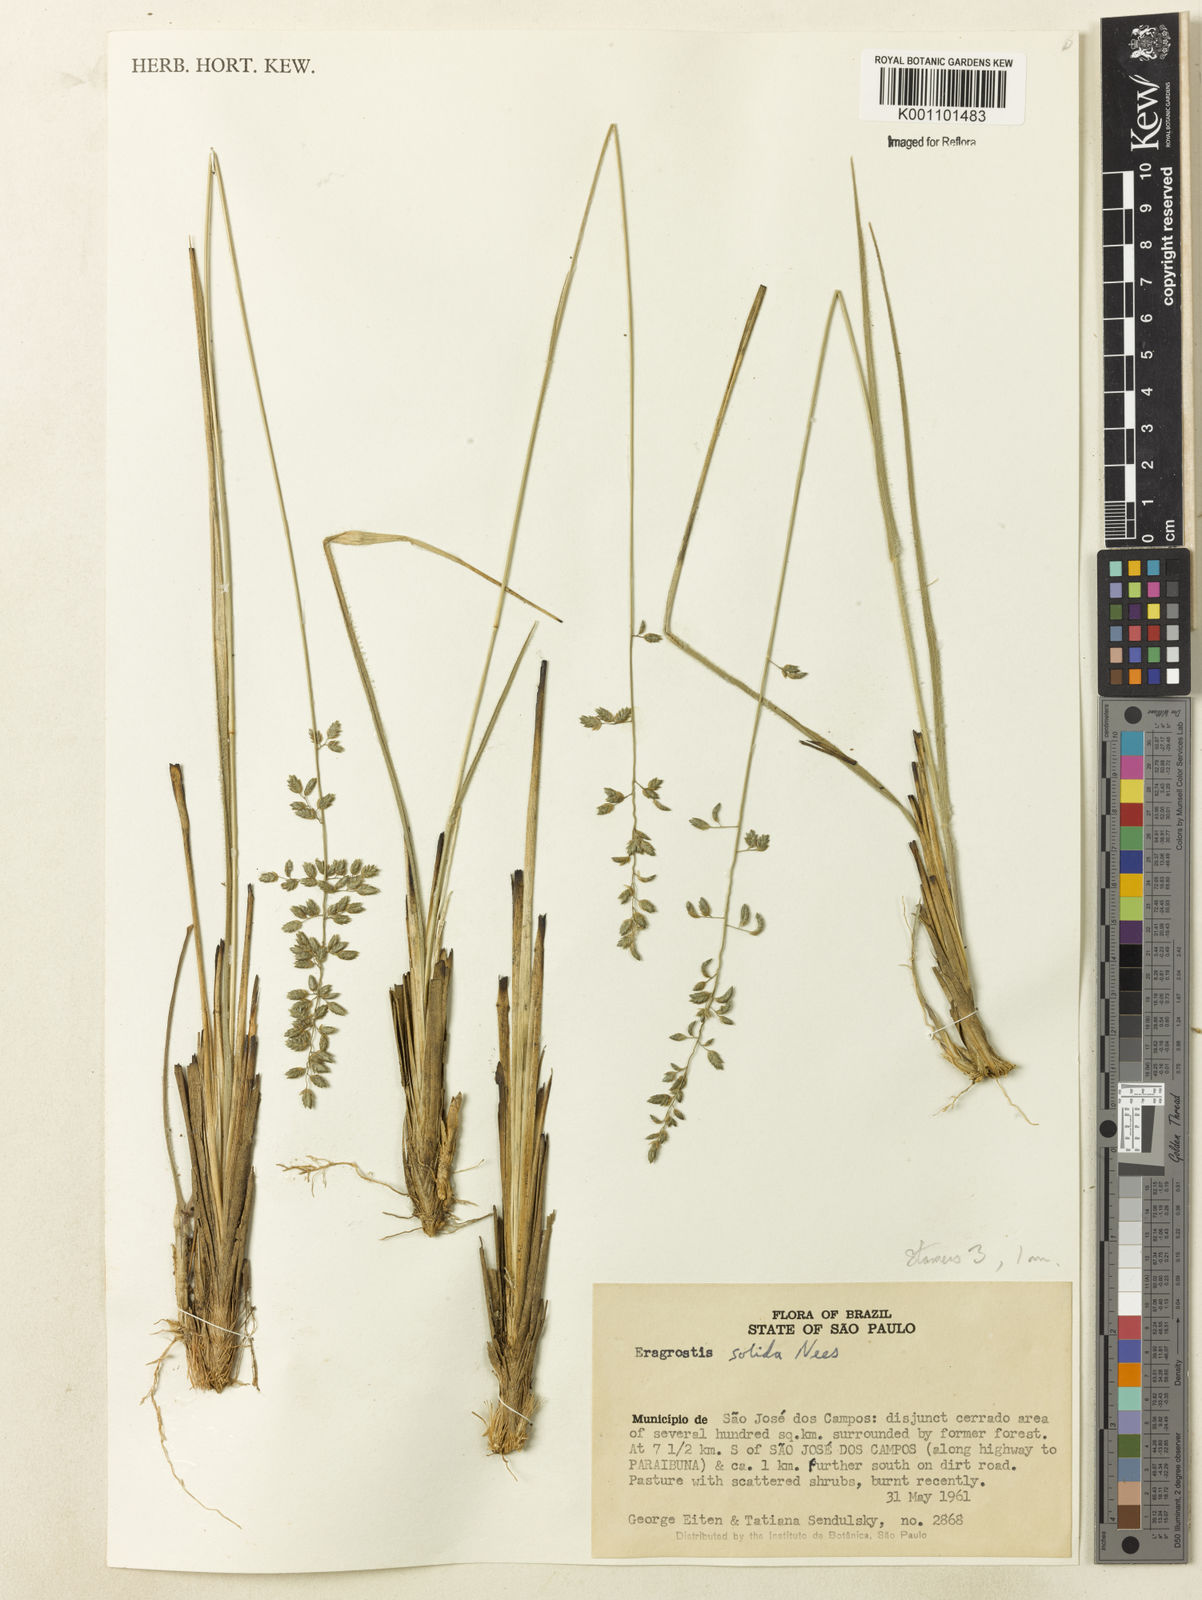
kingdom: Plantae
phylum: Tracheophyta
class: Liliopsida
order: Poales
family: Poaceae
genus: Eragrostis
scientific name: Eragrostis
